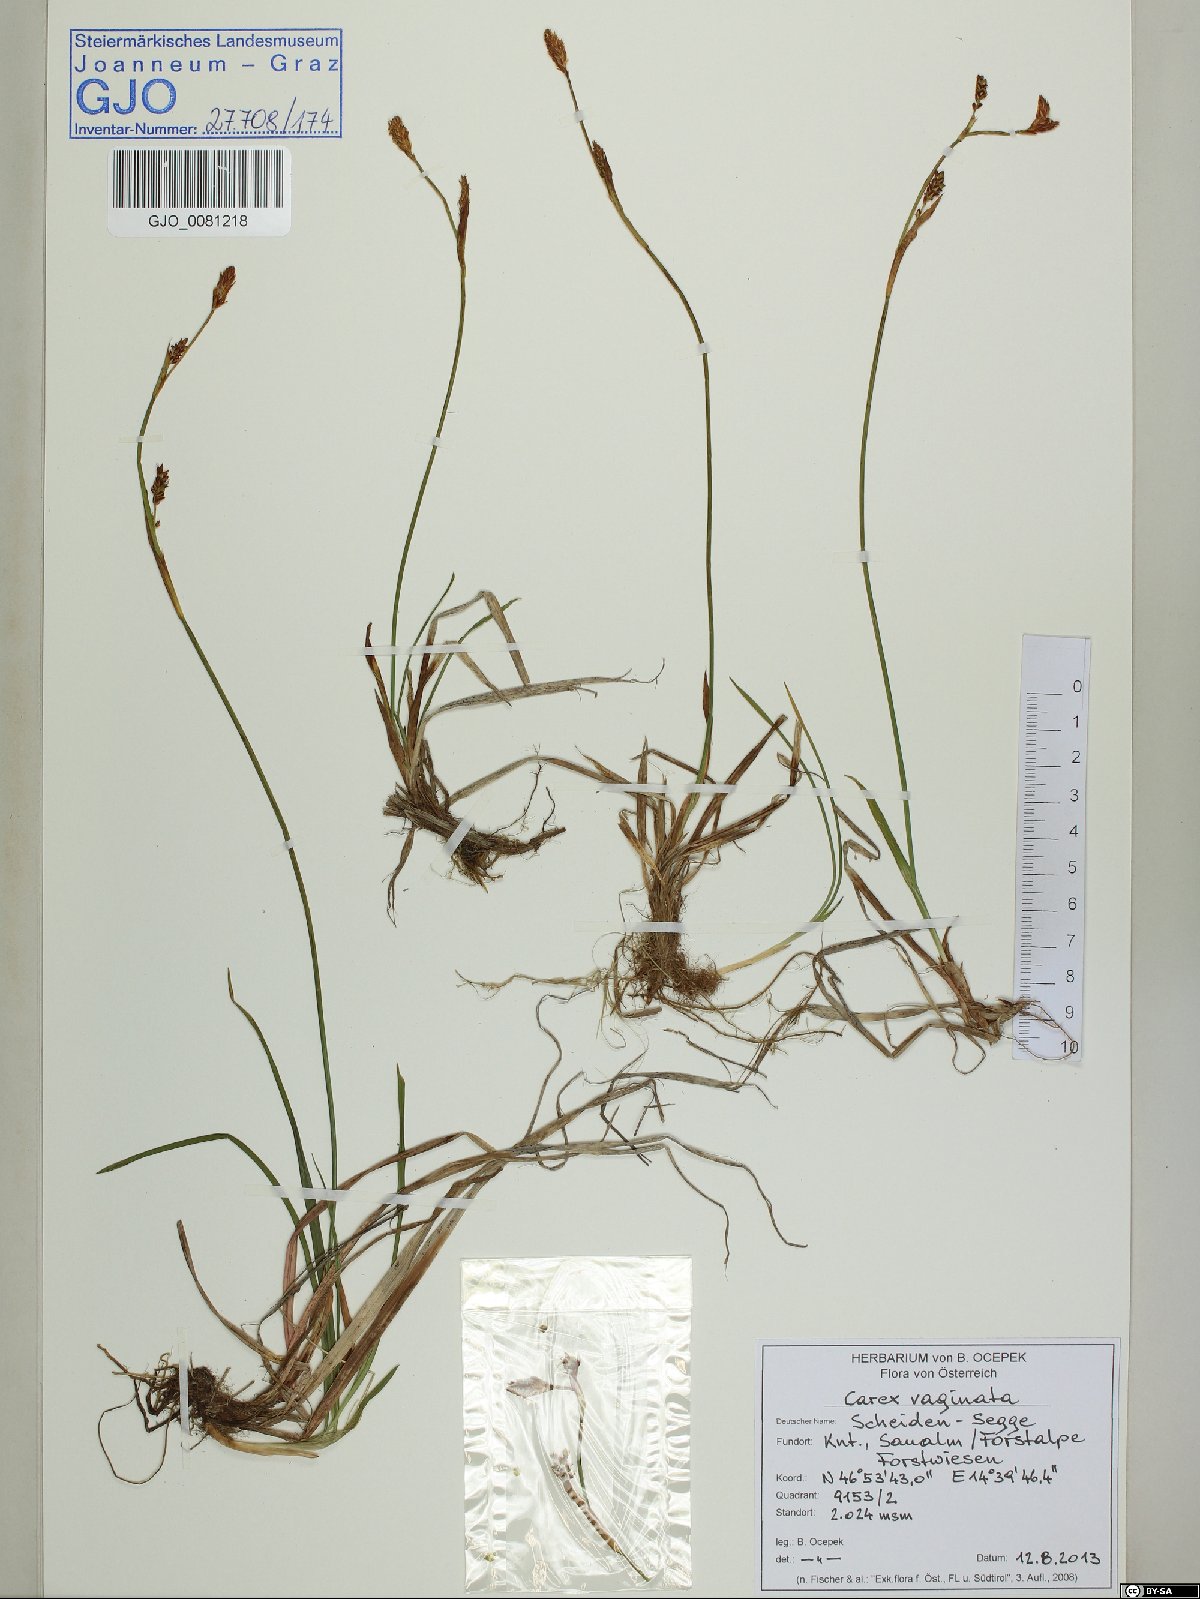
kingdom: Plantae
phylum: Tracheophyta
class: Liliopsida
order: Poales
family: Cyperaceae
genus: Carex
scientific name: Carex vaginata
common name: Sheathed sedge
